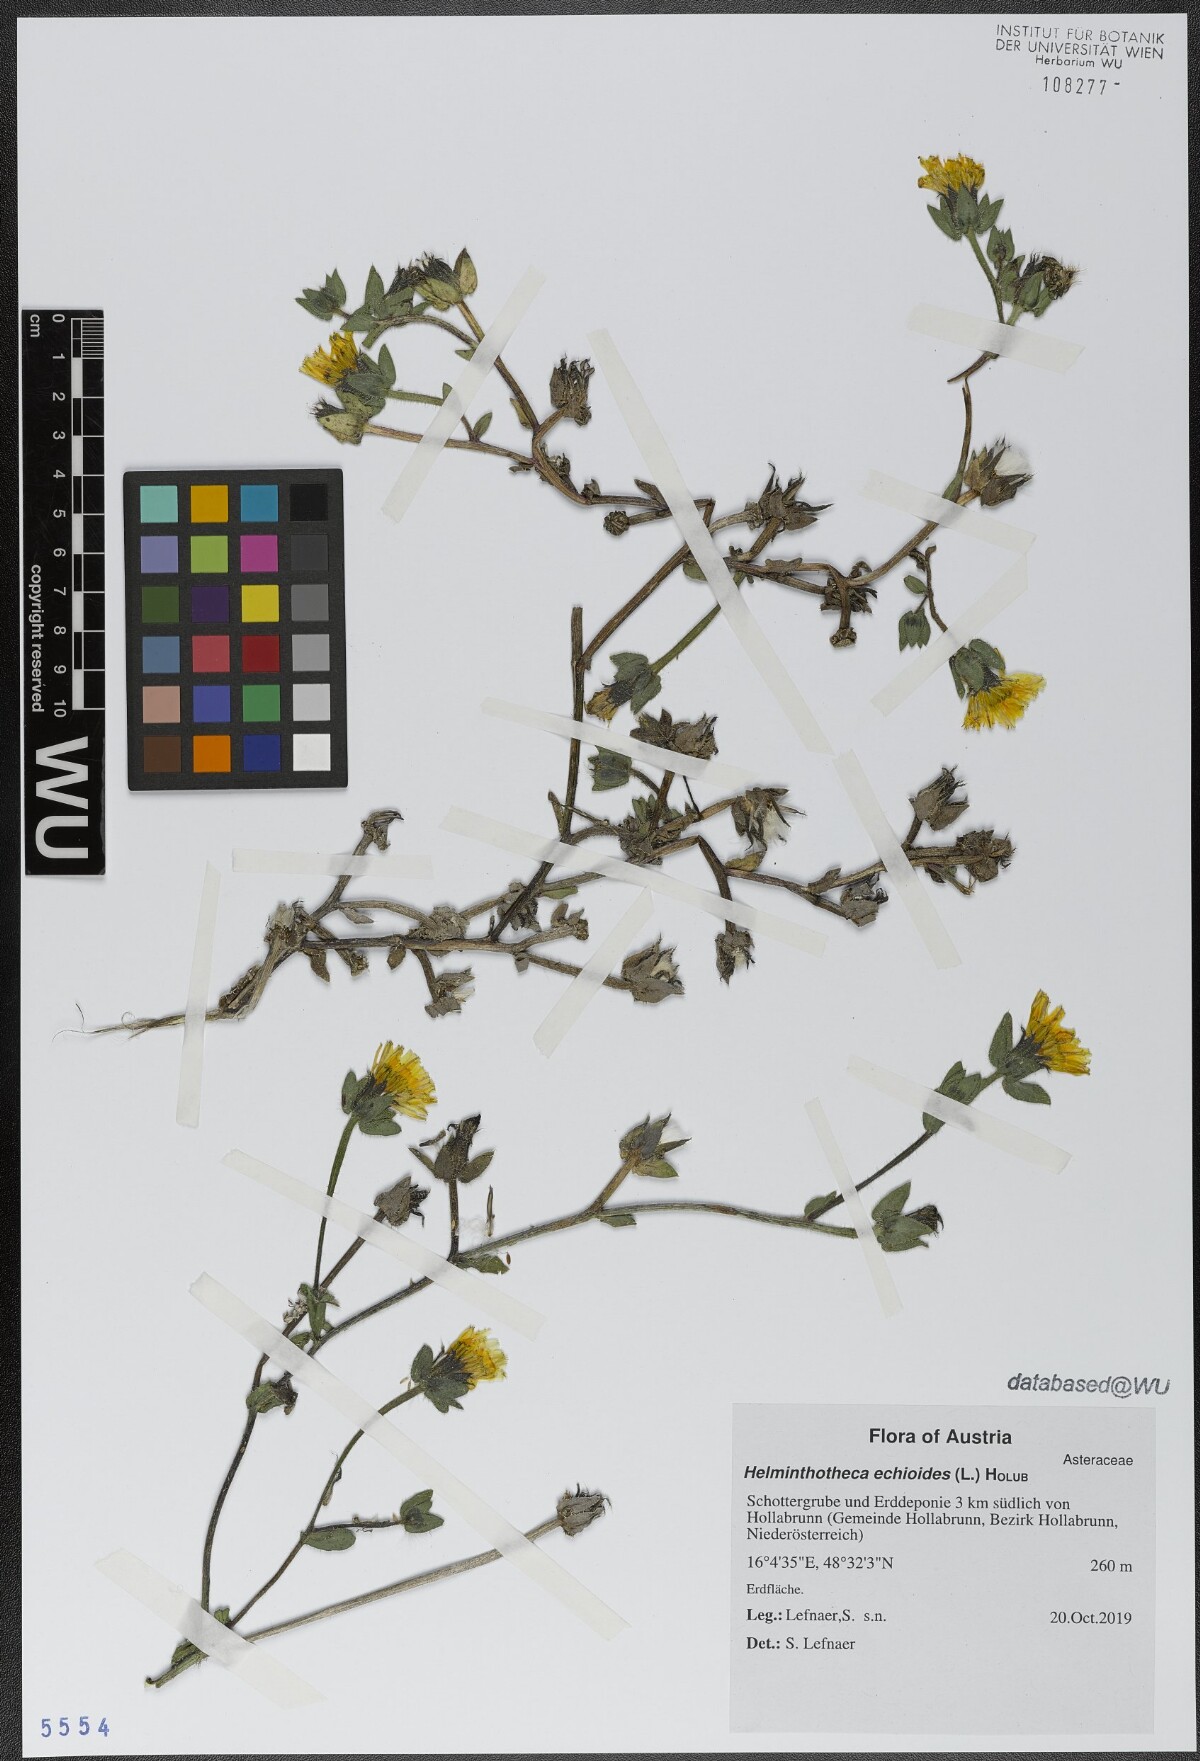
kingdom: Plantae
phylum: Tracheophyta
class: Magnoliopsida
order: Asterales
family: Asteraceae
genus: Helminthotheca
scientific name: Helminthotheca echioides
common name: Ox-tongue
